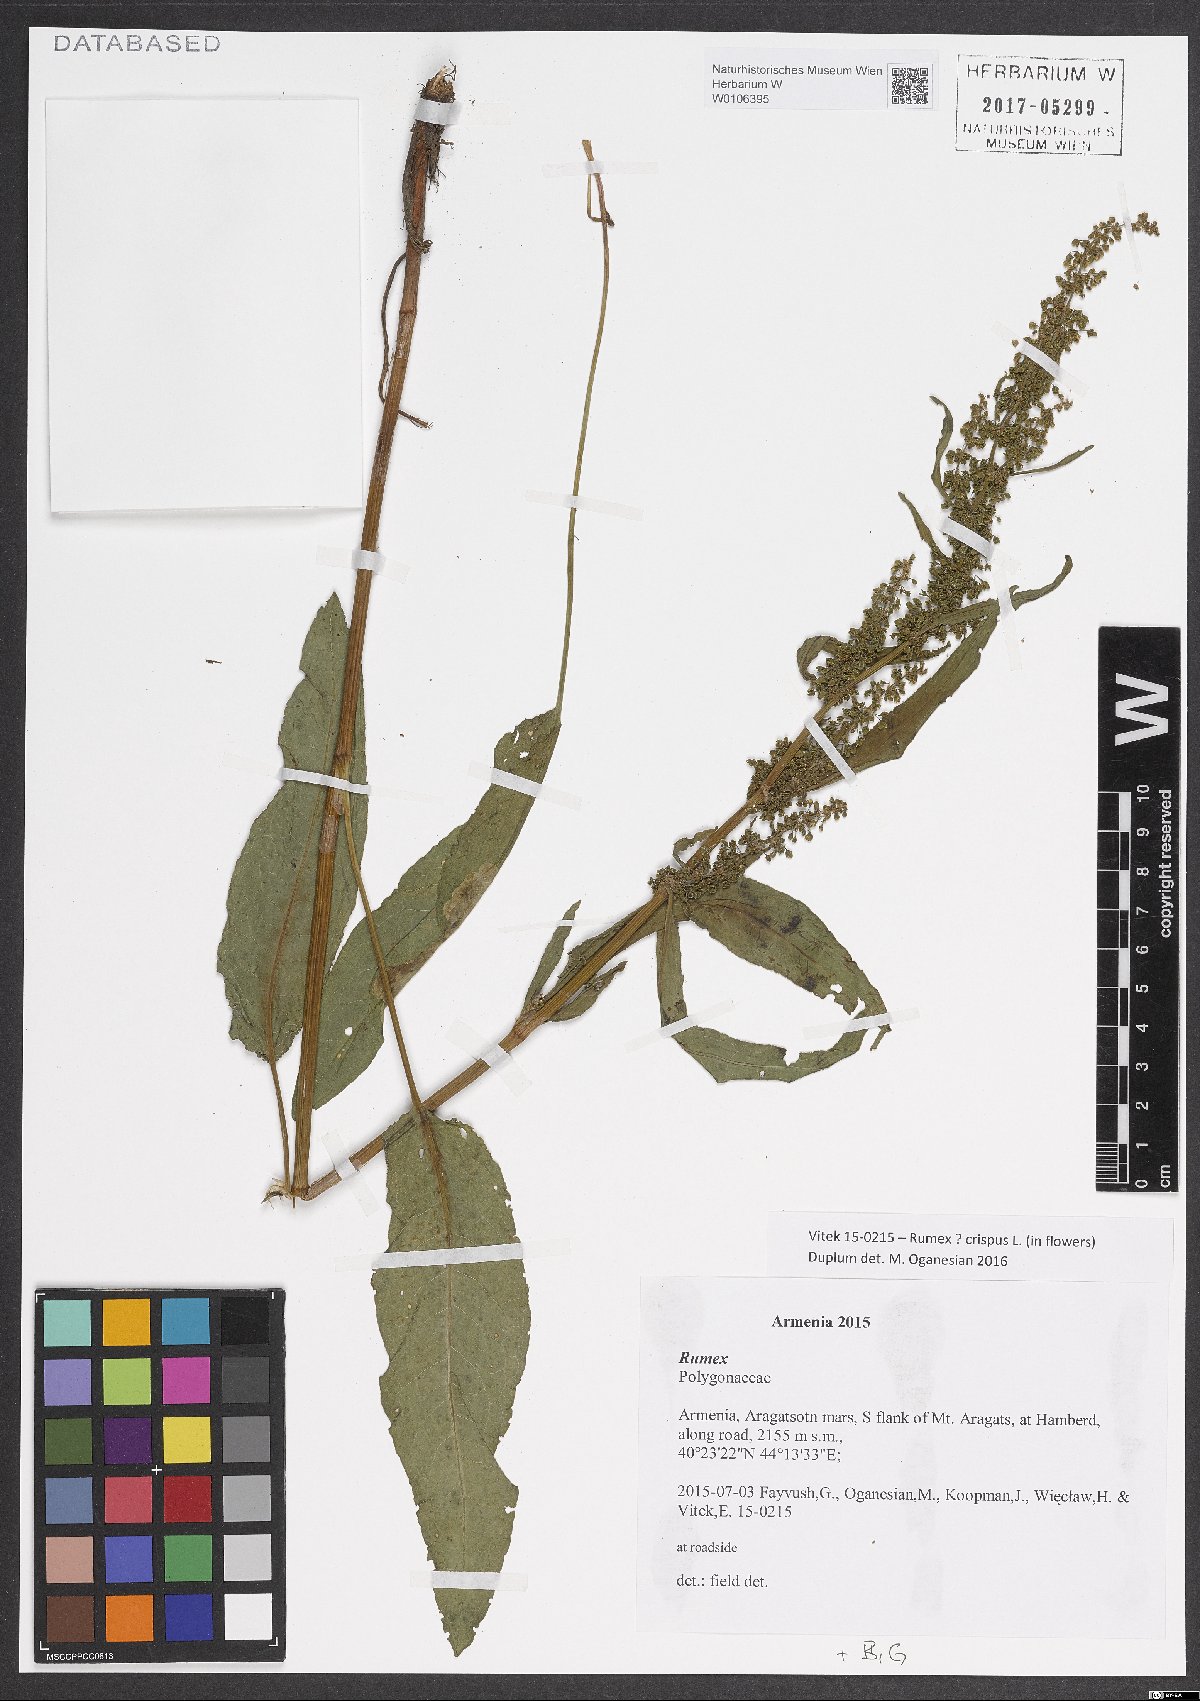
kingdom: Plantae
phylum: Tracheophyta
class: Magnoliopsida
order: Caryophyllales
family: Polygonaceae
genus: Rumex
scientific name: Rumex crispus
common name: Curled dock
